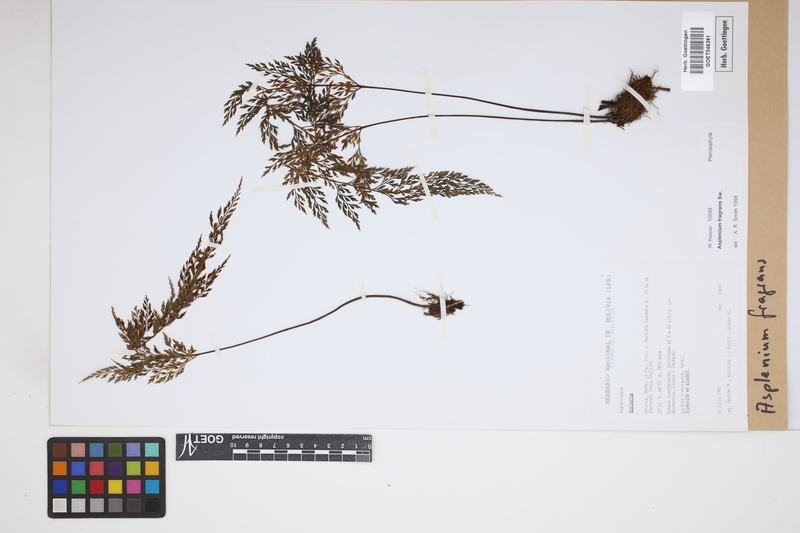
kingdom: Plantae
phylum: Tracheophyta
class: Polypodiopsida
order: Polypodiales
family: Aspleniaceae
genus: Asplenium
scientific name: Asplenium fragrans
